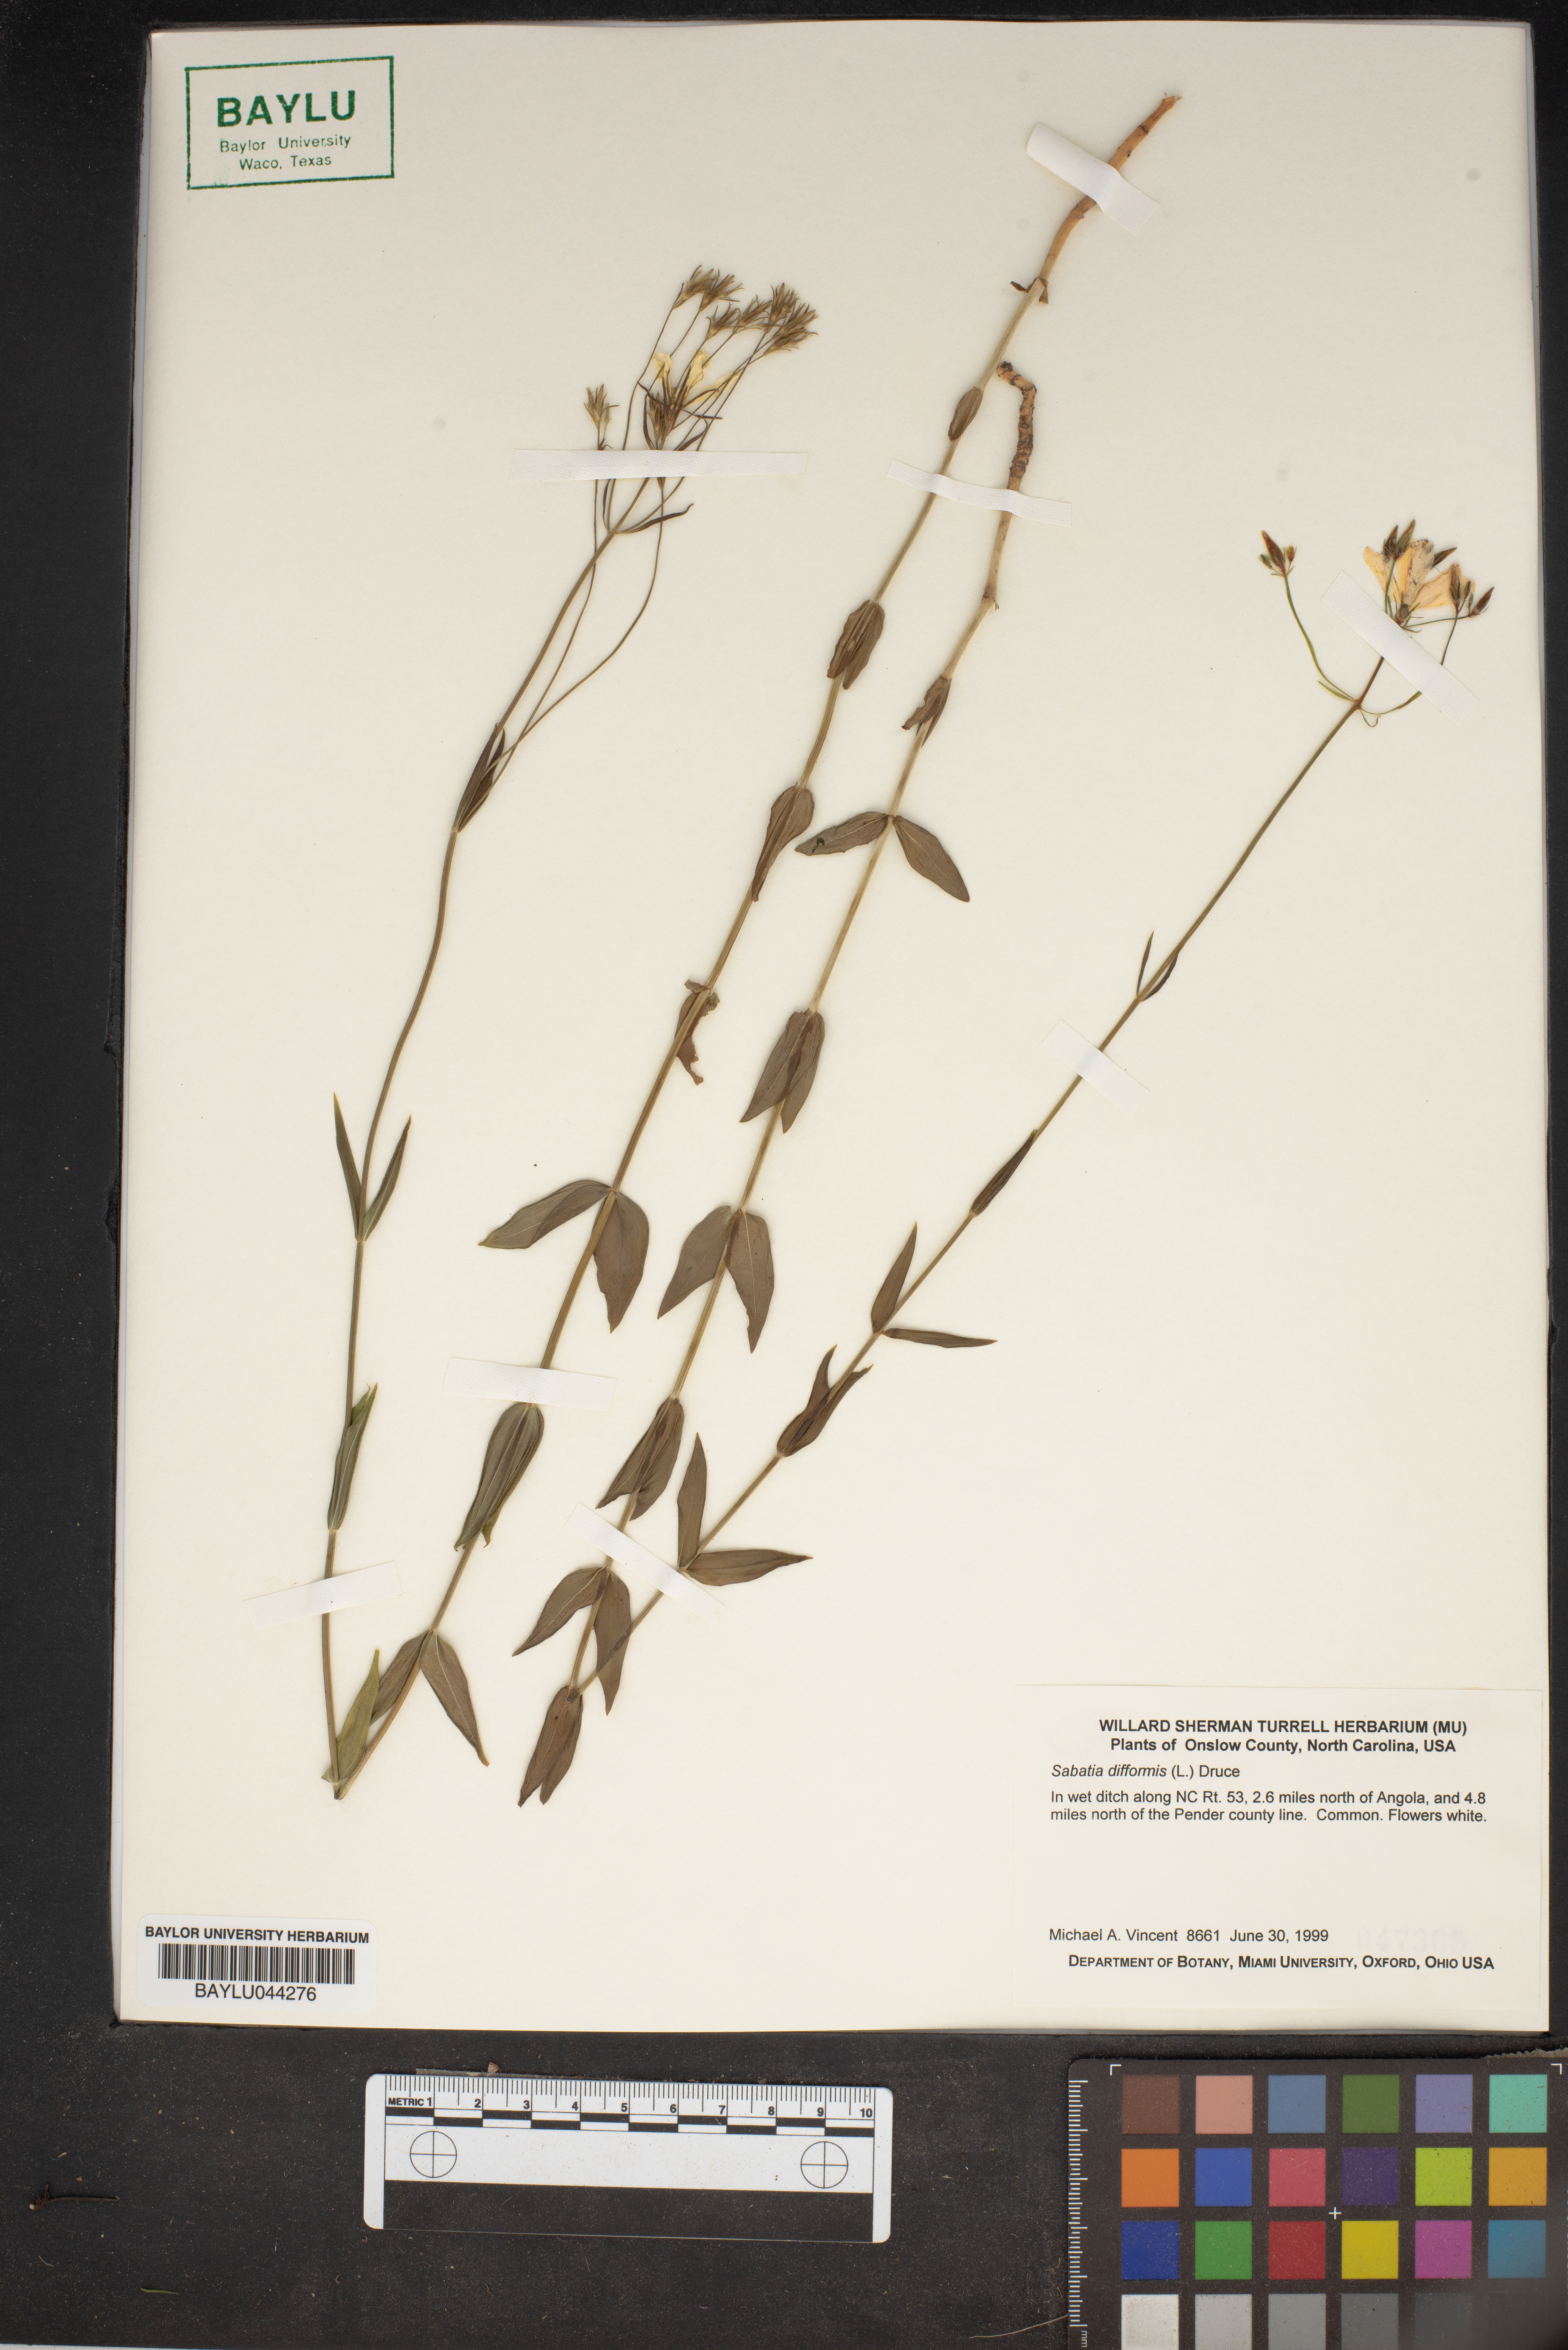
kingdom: Plantae
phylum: Tracheophyta
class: Magnoliopsida
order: Gentianales
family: Gentianaceae
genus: Sabatia
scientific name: Sabatia difformis
